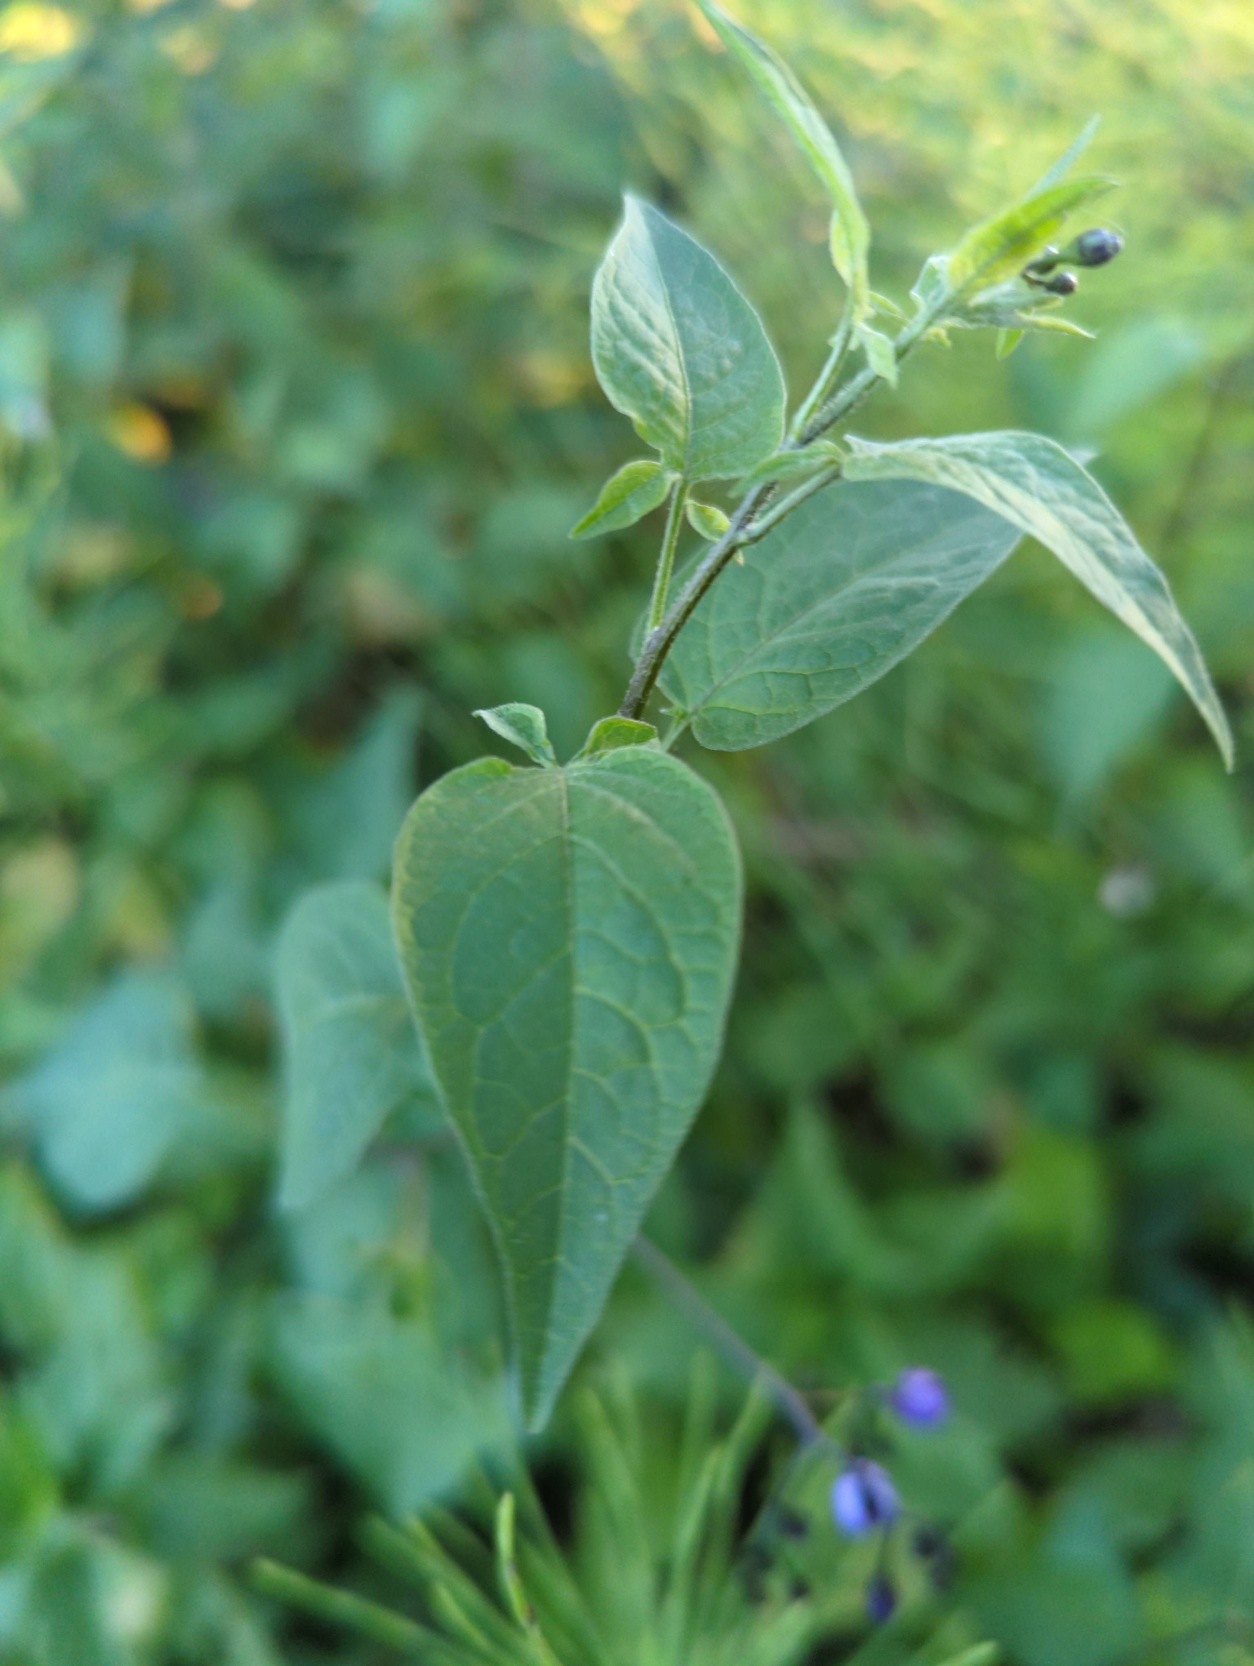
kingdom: Plantae
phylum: Tracheophyta
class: Magnoliopsida
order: Solanales
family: Solanaceae
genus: Solanum
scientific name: Solanum dulcamara
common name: Bittersød natskygge
